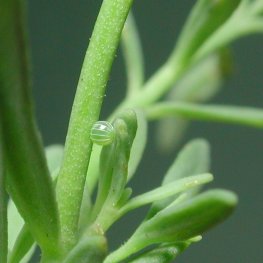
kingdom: Animalia
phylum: Arthropoda
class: Insecta
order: Lepidoptera
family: Nymphalidae
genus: Junonia
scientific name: Junonia coenia
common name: Common Buckeye
